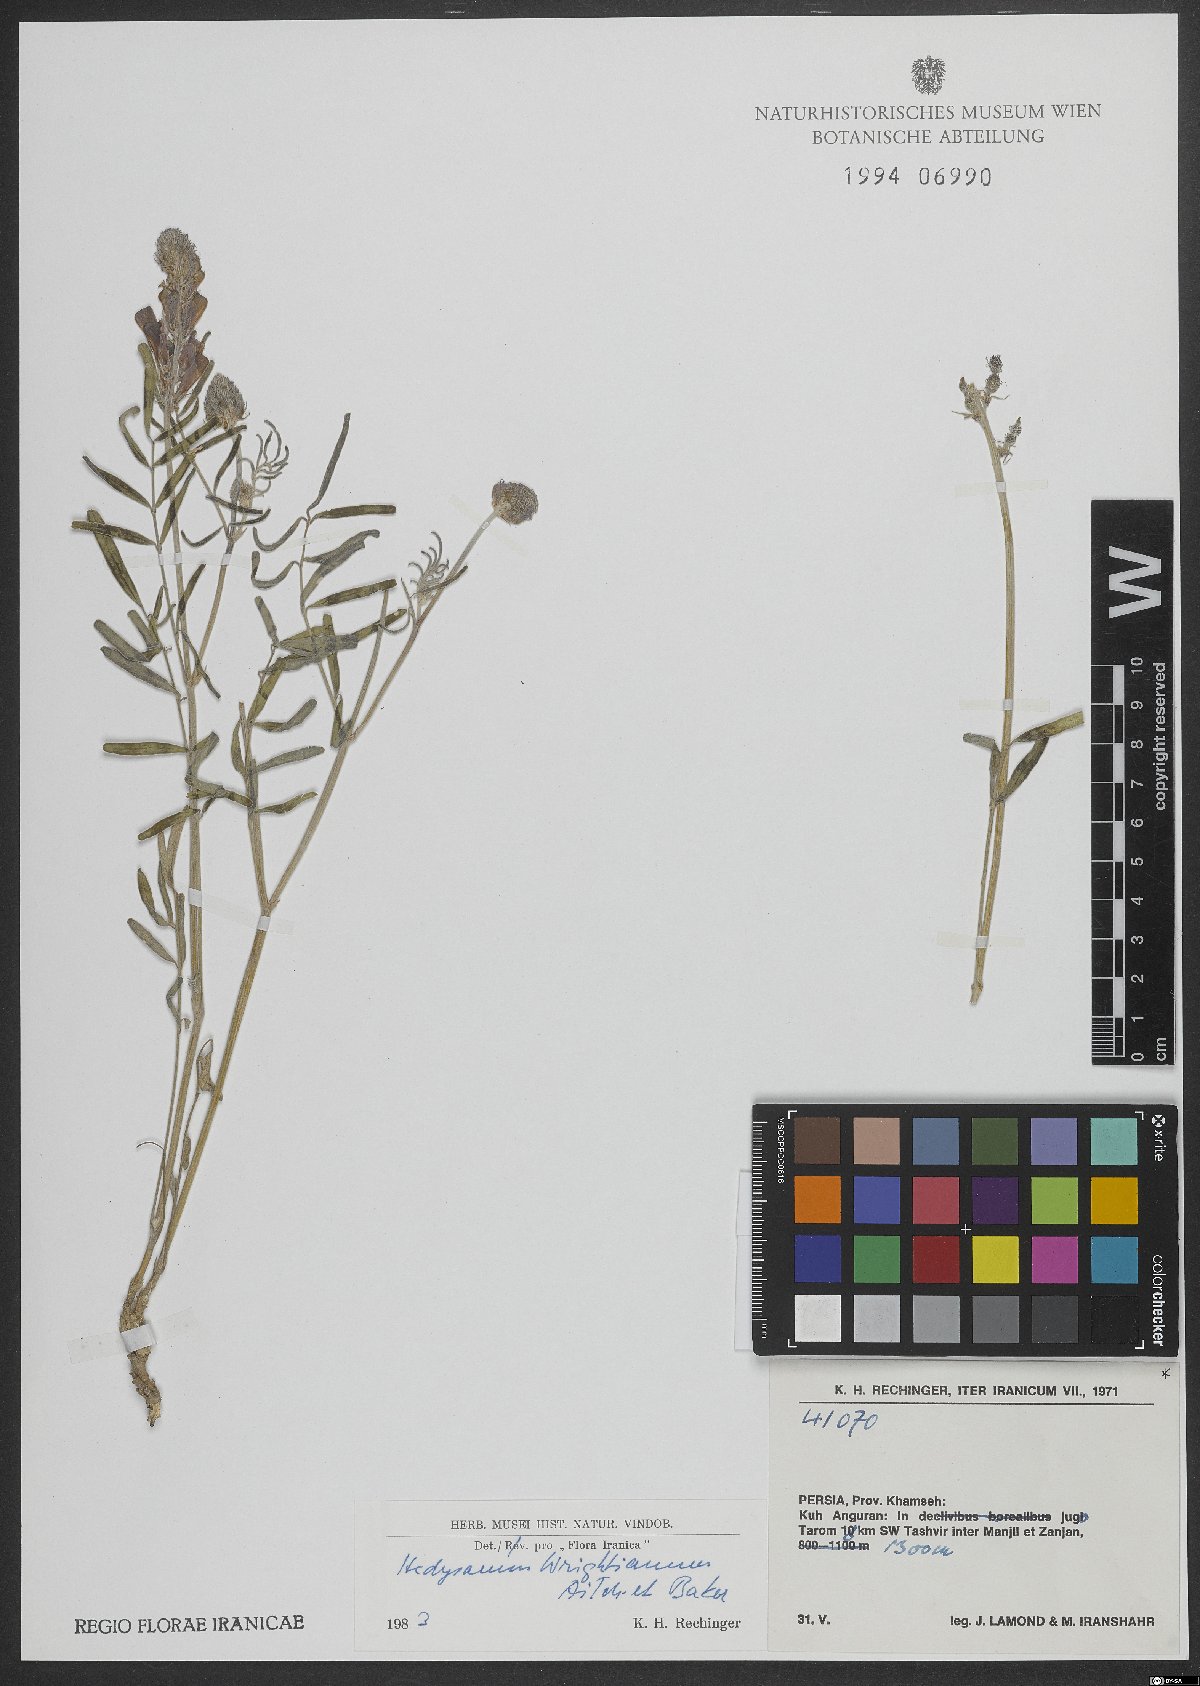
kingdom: Plantae
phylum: Tracheophyta
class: Magnoliopsida
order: Fabales
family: Fabaceae
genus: Hedysarum
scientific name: Hedysarum micropterum
